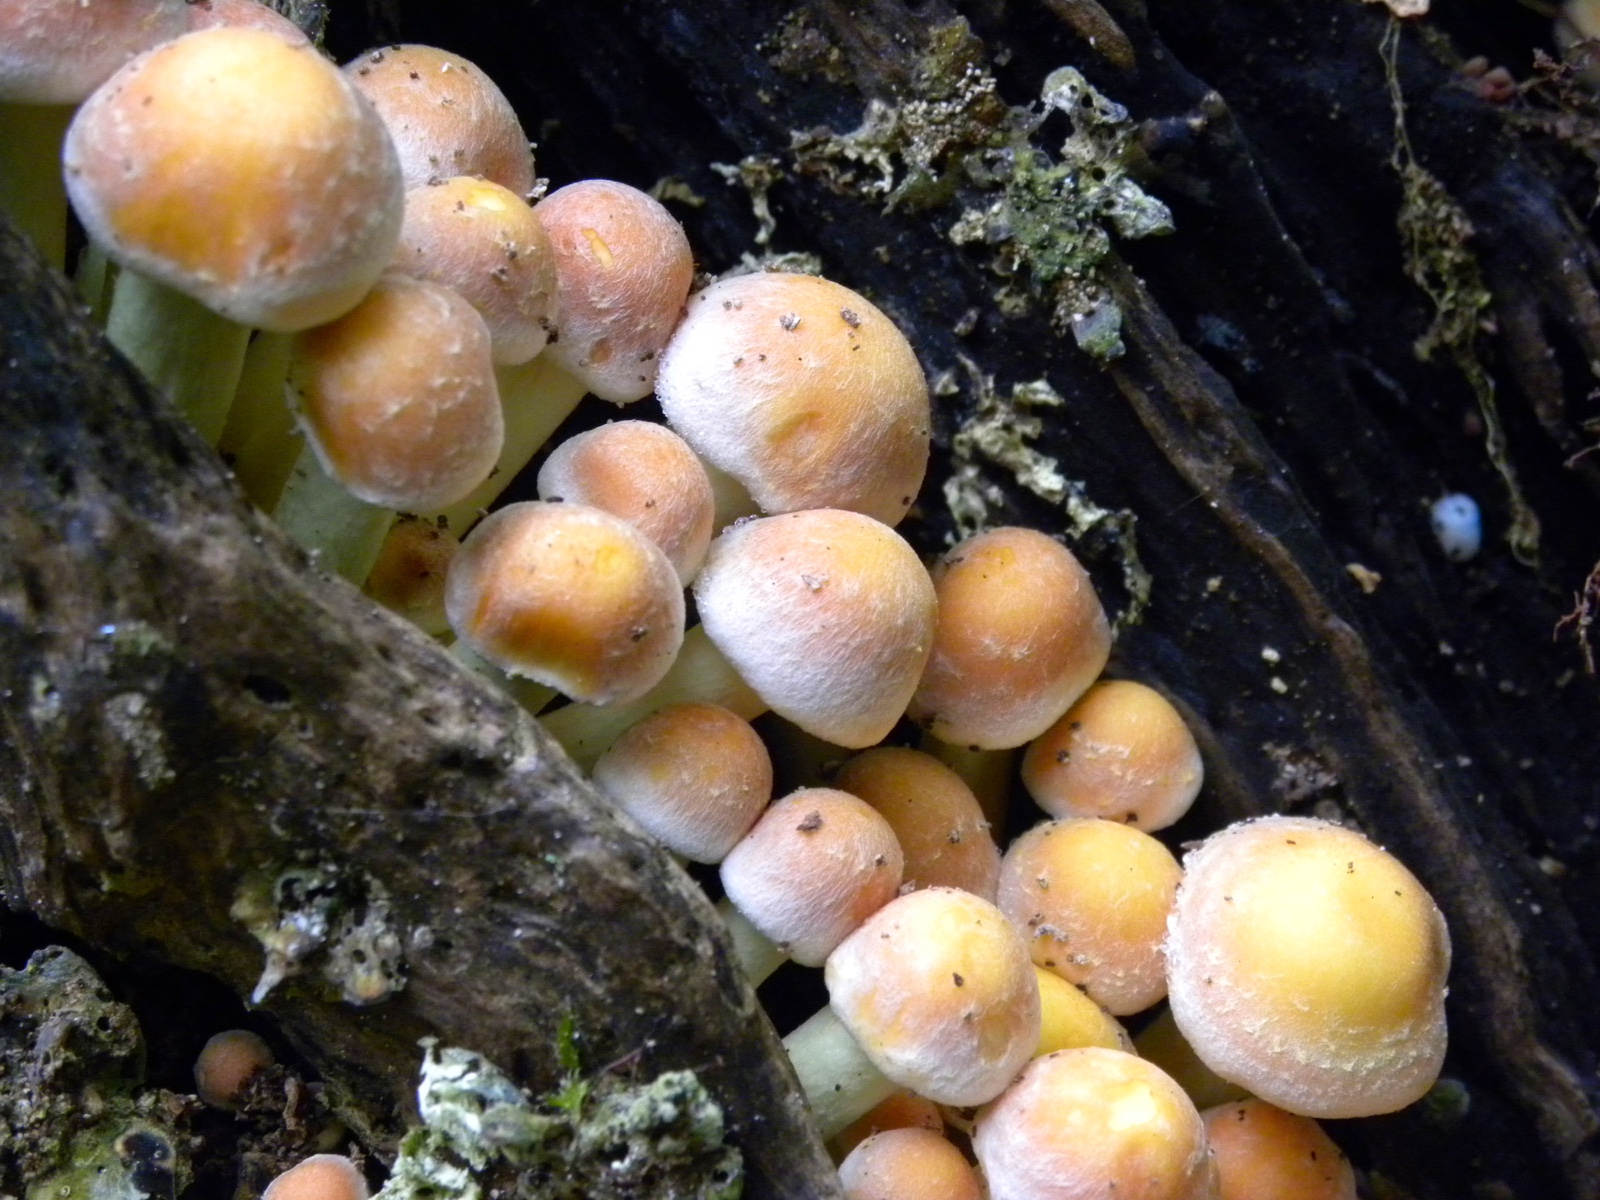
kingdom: Fungi
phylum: Basidiomycota
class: Agaricomycetes
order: Agaricales
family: Strophariaceae
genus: Hypholoma
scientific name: Hypholoma fasciculare
